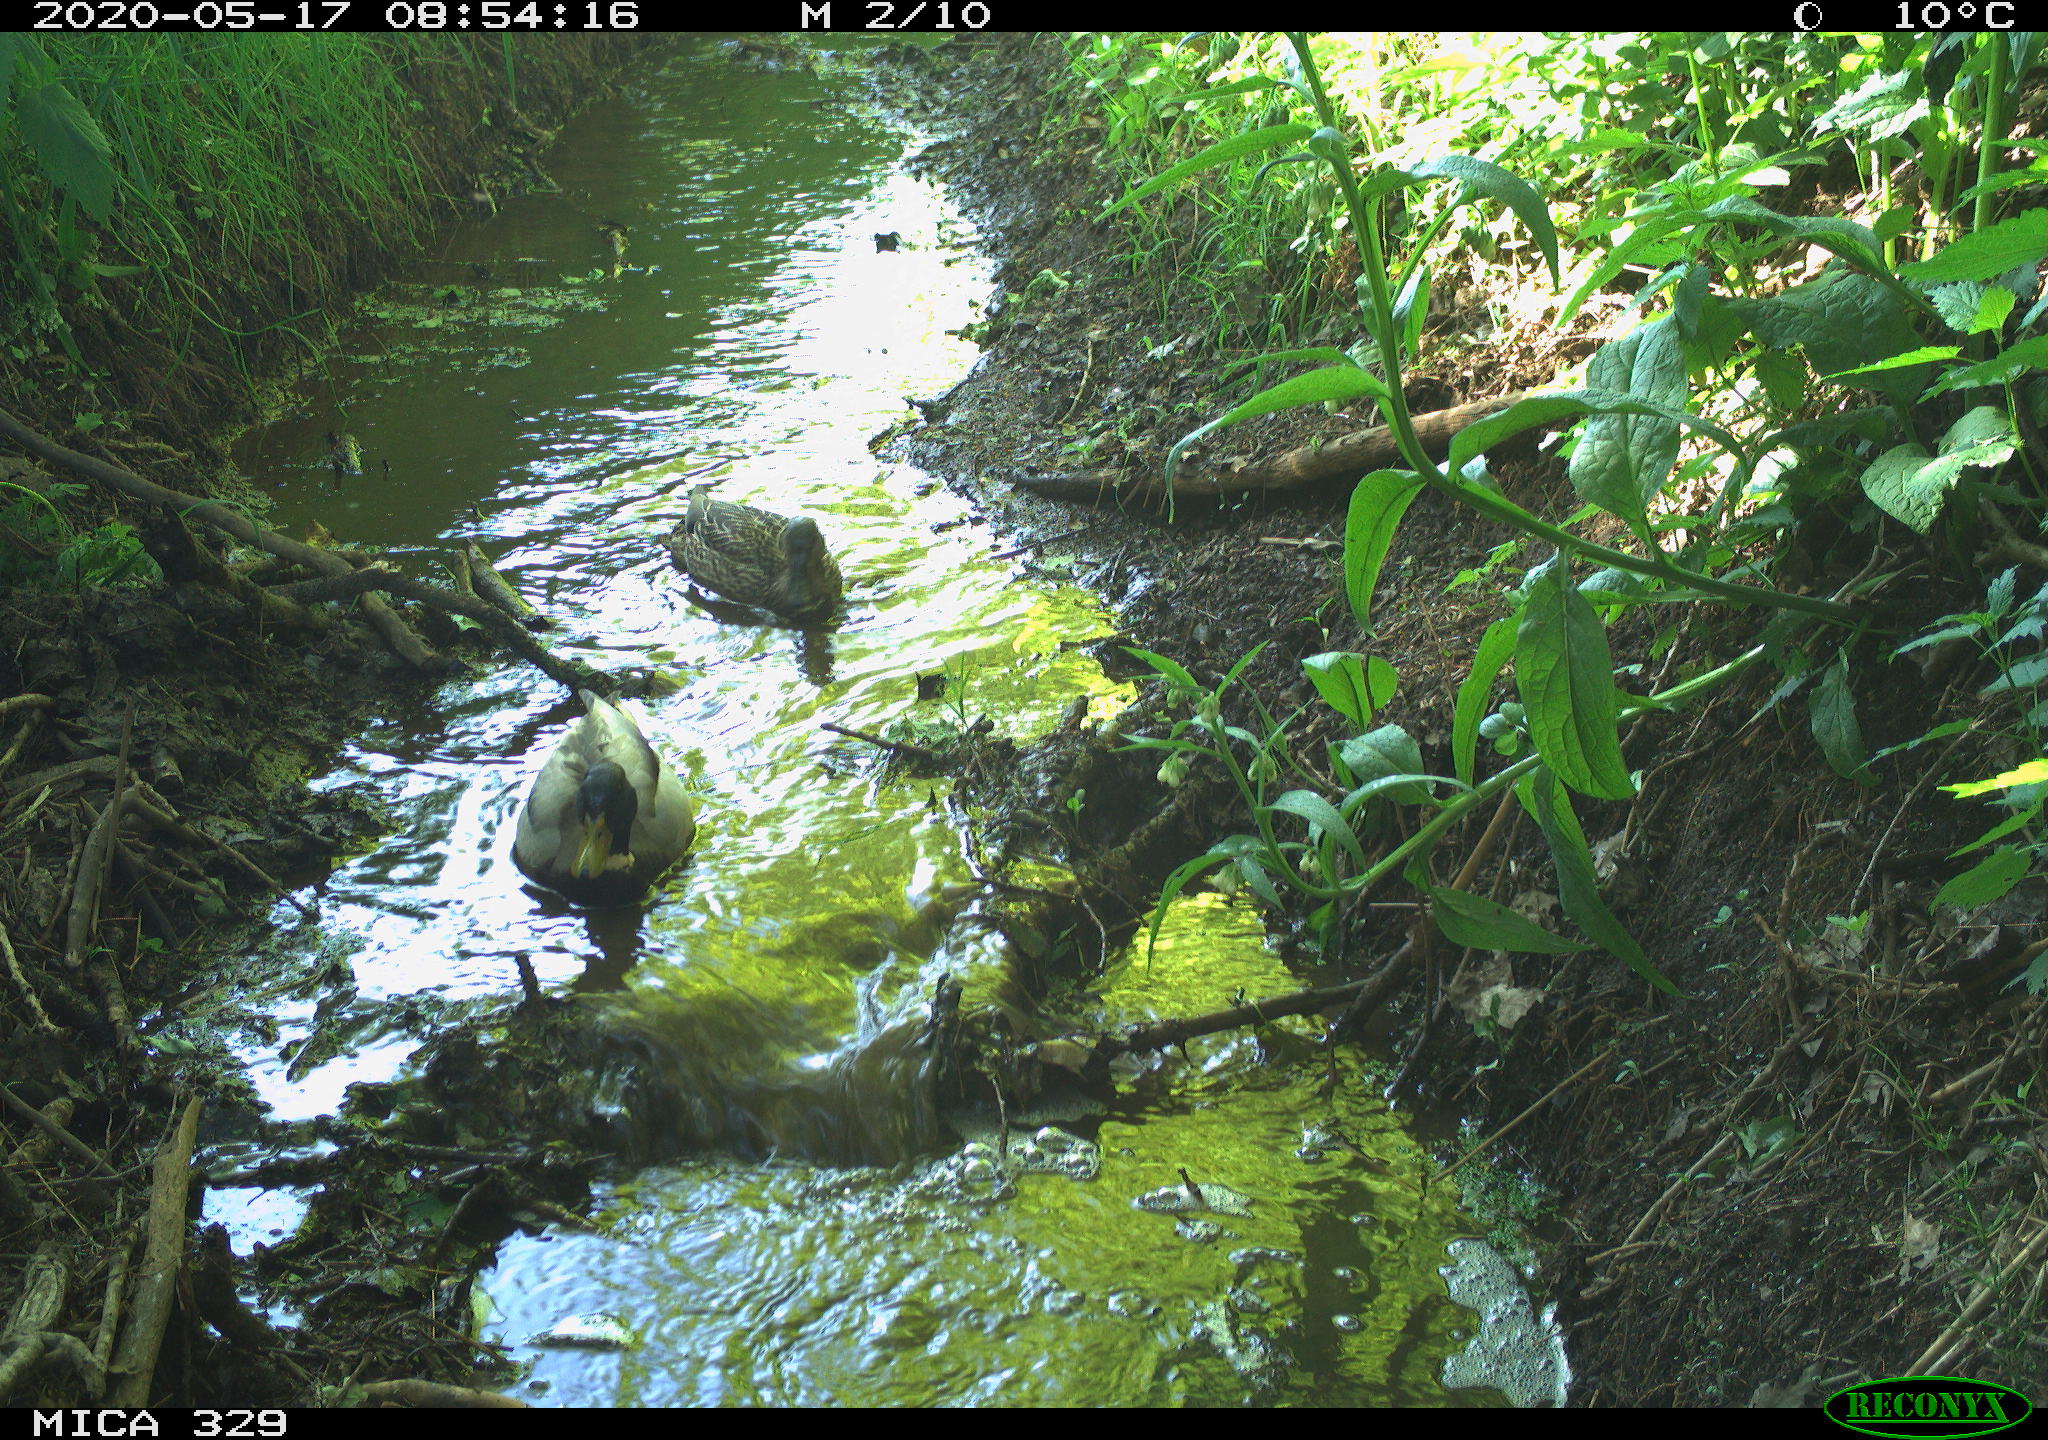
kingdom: Animalia
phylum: Chordata
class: Aves
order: Anseriformes
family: Anatidae
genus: Anas
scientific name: Anas platyrhynchos
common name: Mallard
